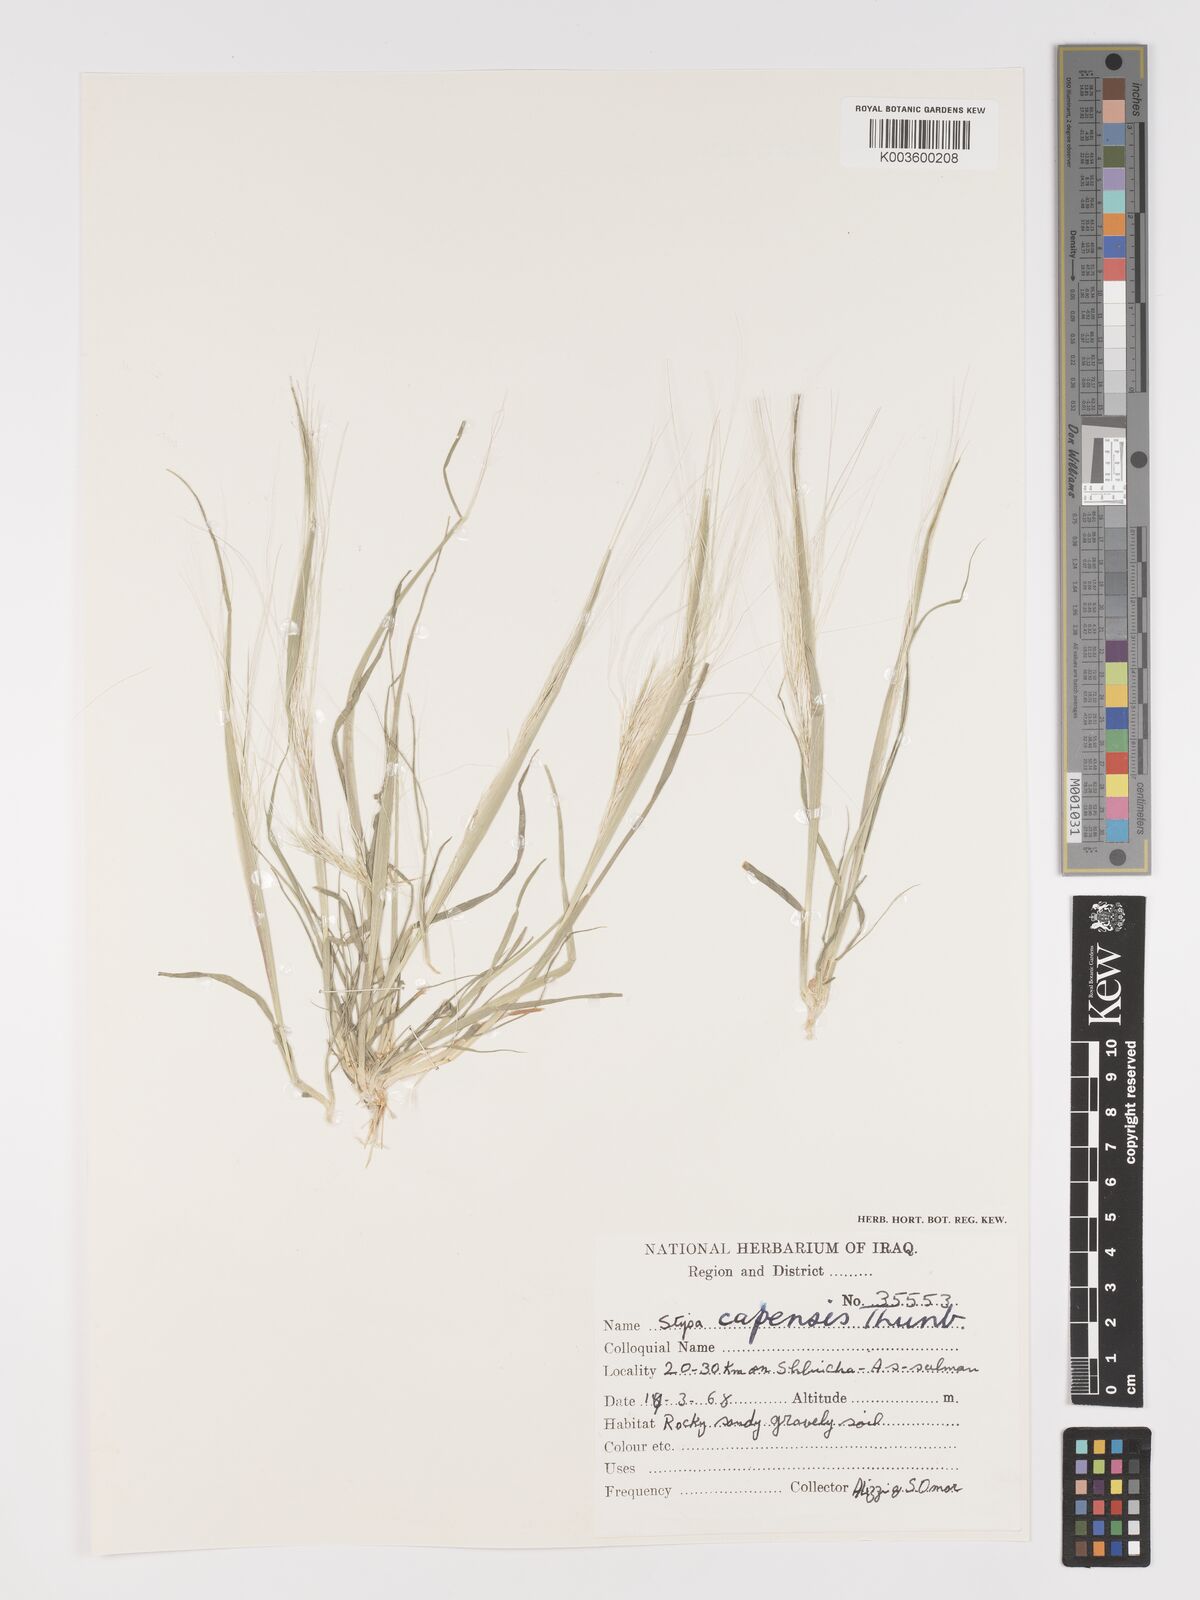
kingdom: Plantae
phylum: Tracheophyta
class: Liliopsida
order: Poales
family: Poaceae
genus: Stipellula
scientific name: Stipellula capensis
